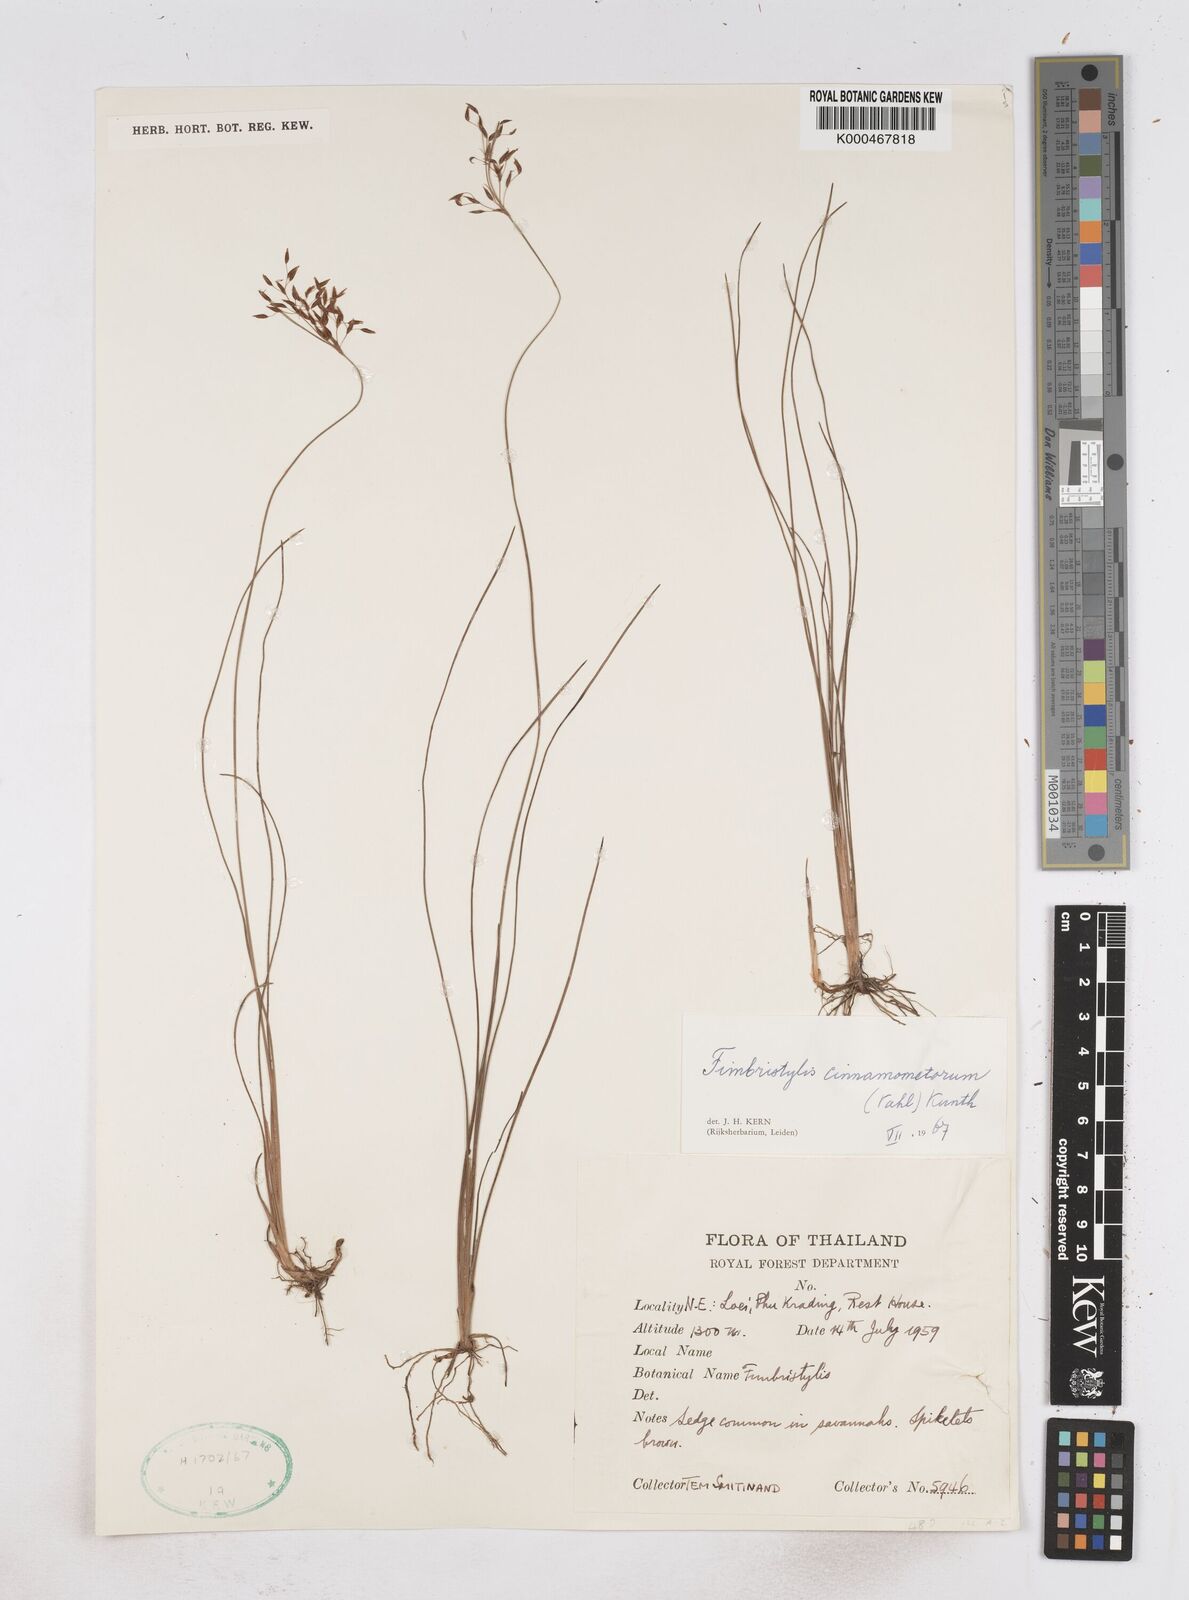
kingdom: Plantae
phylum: Tracheophyta
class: Liliopsida
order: Poales
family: Cyperaceae
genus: Fimbristylis
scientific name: Fimbristylis cinnamometorum
